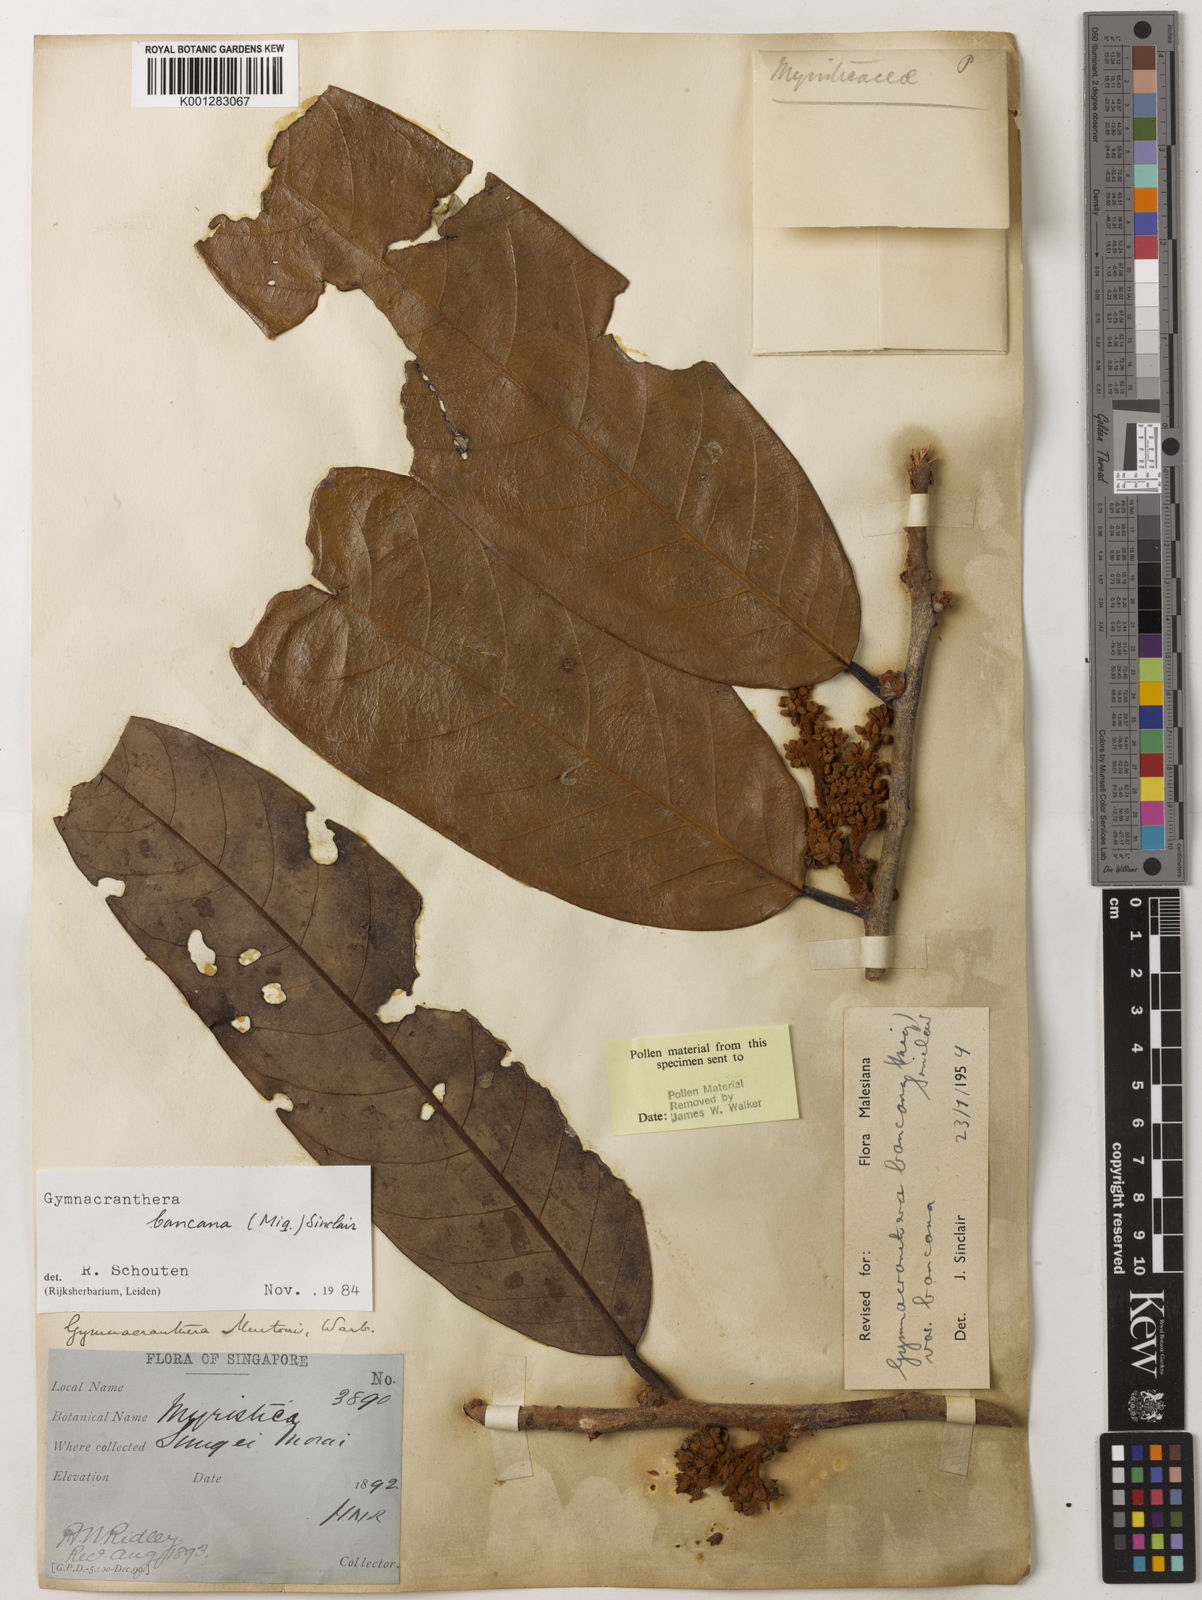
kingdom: Plantae
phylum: Tracheophyta
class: Magnoliopsida
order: Magnoliales
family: Myristicaceae
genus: Gymnacranthera
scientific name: Gymnacranthera bancana
